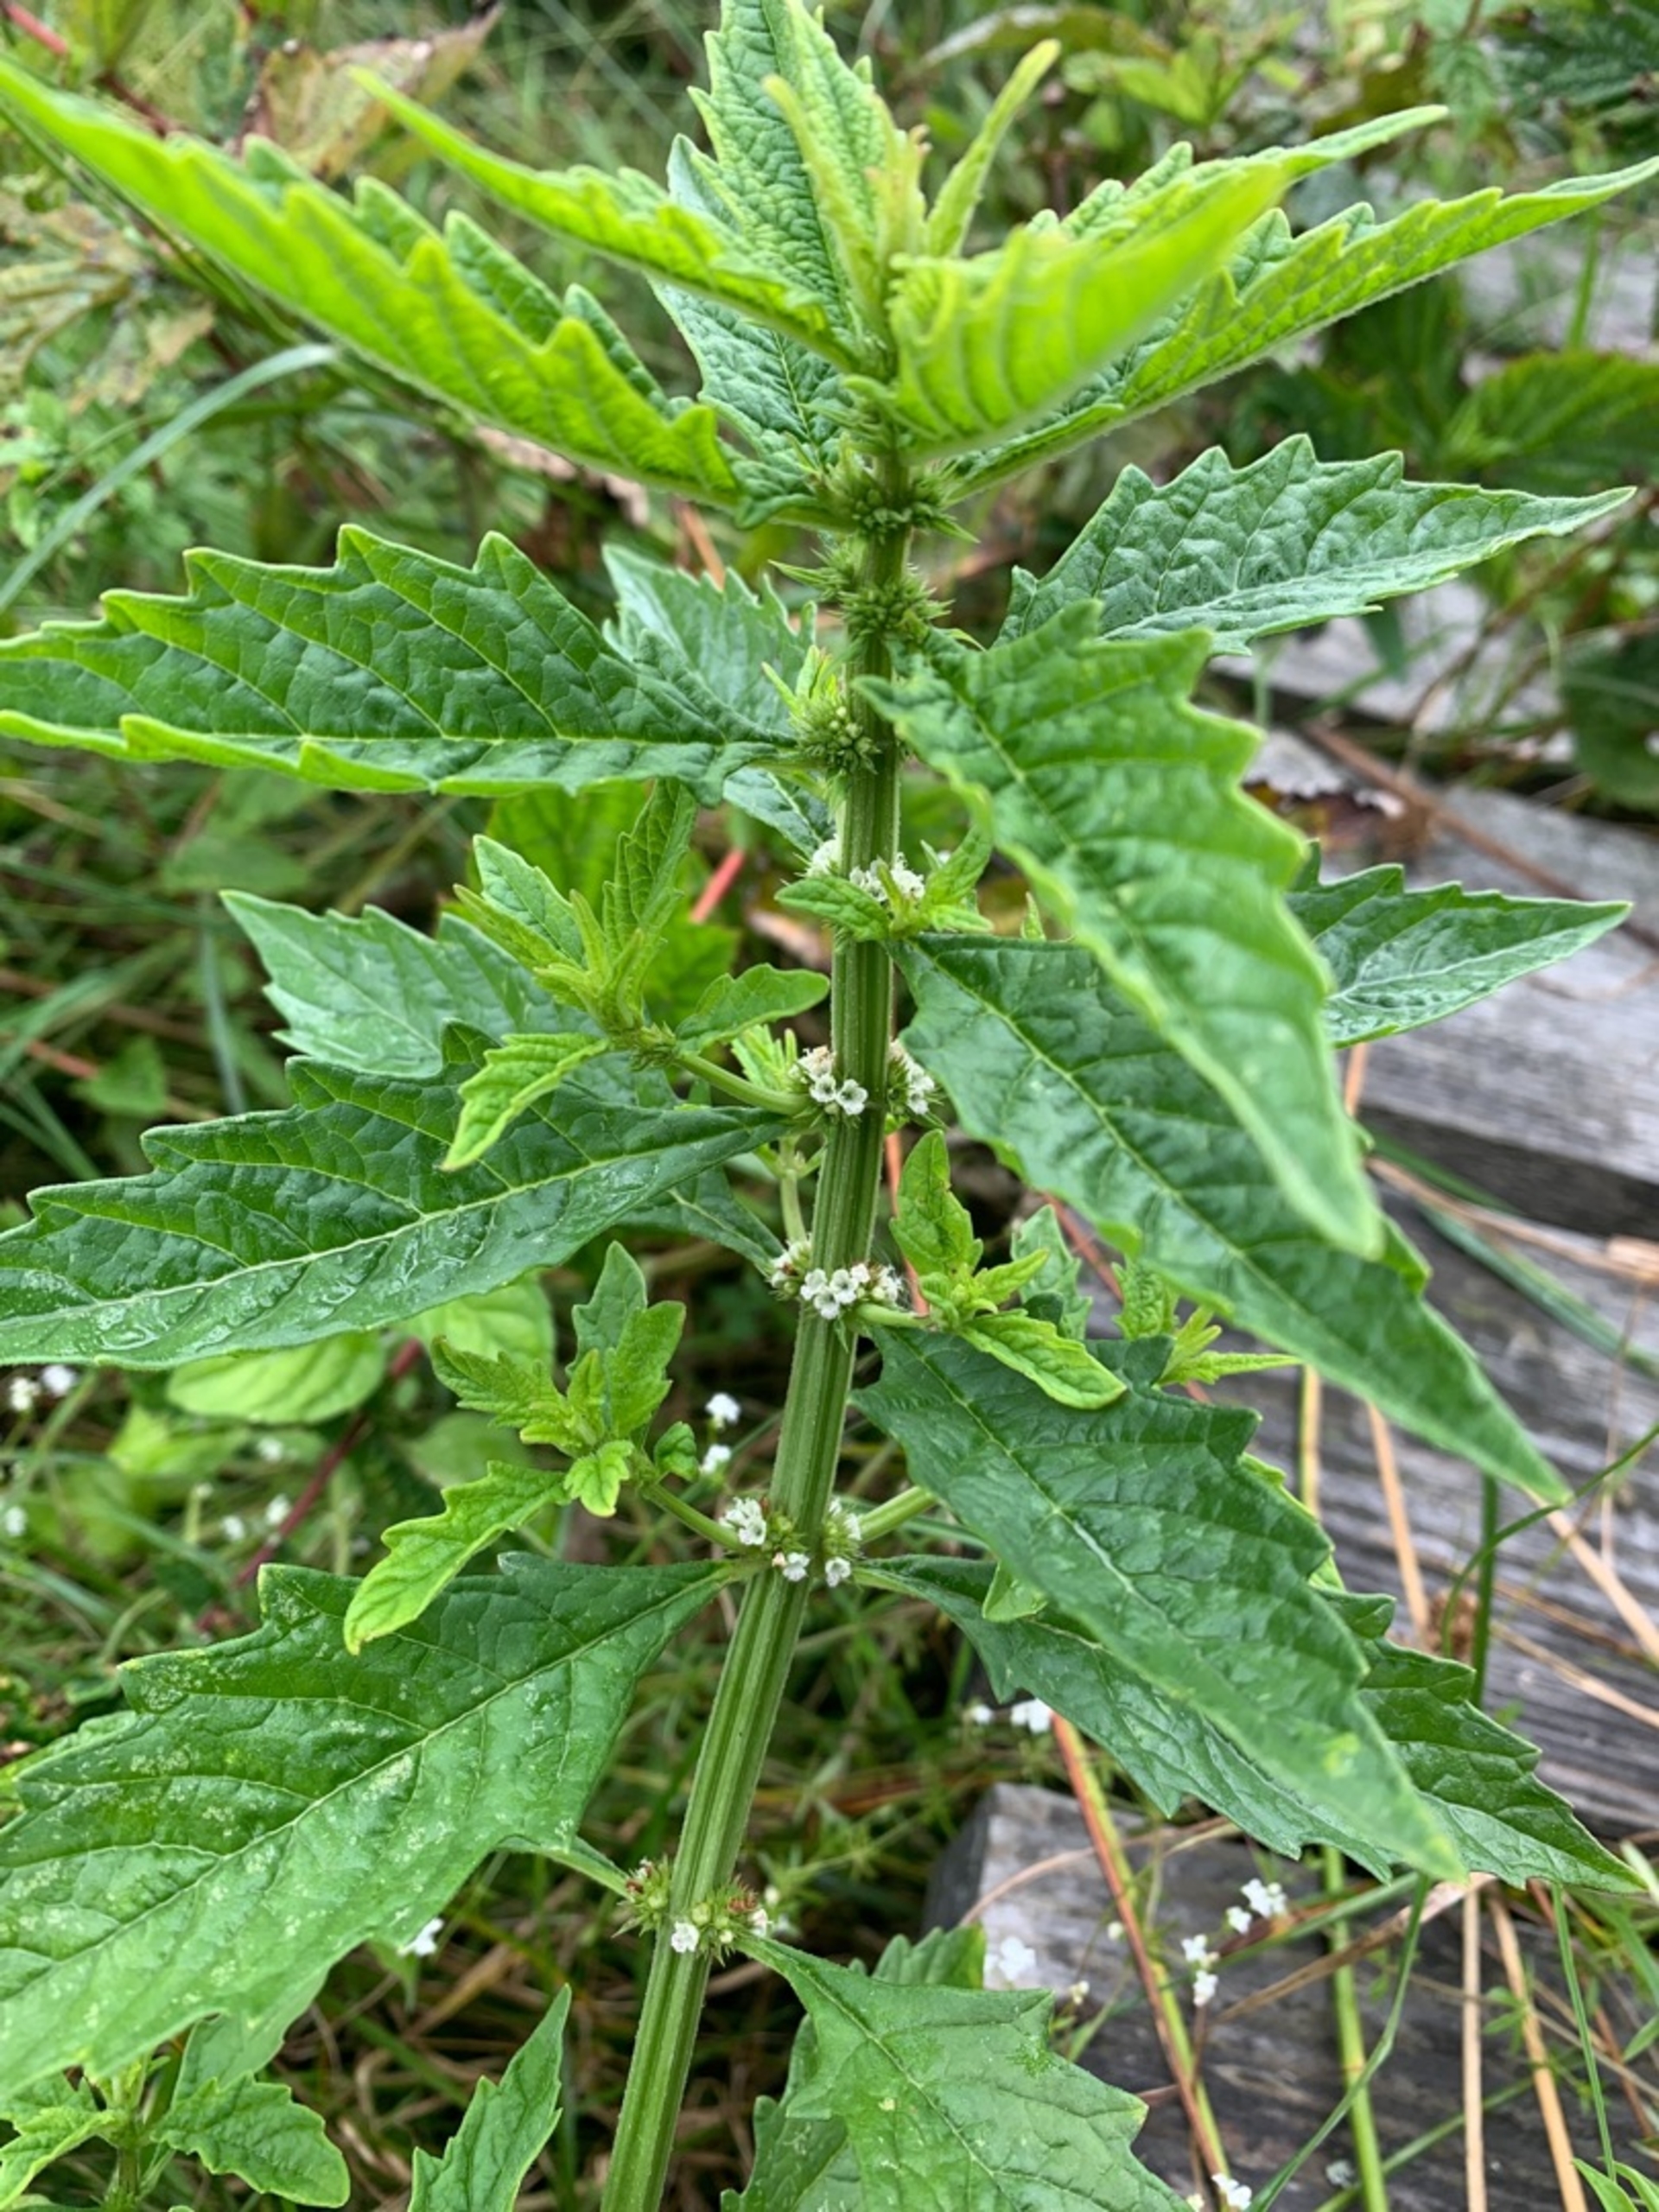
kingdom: Plantae
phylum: Tracheophyta
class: Magnoliopsida
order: Lamiales
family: Lamiaceae
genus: Lycopus
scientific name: Lycopus europaeus
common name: Sværtevæld
